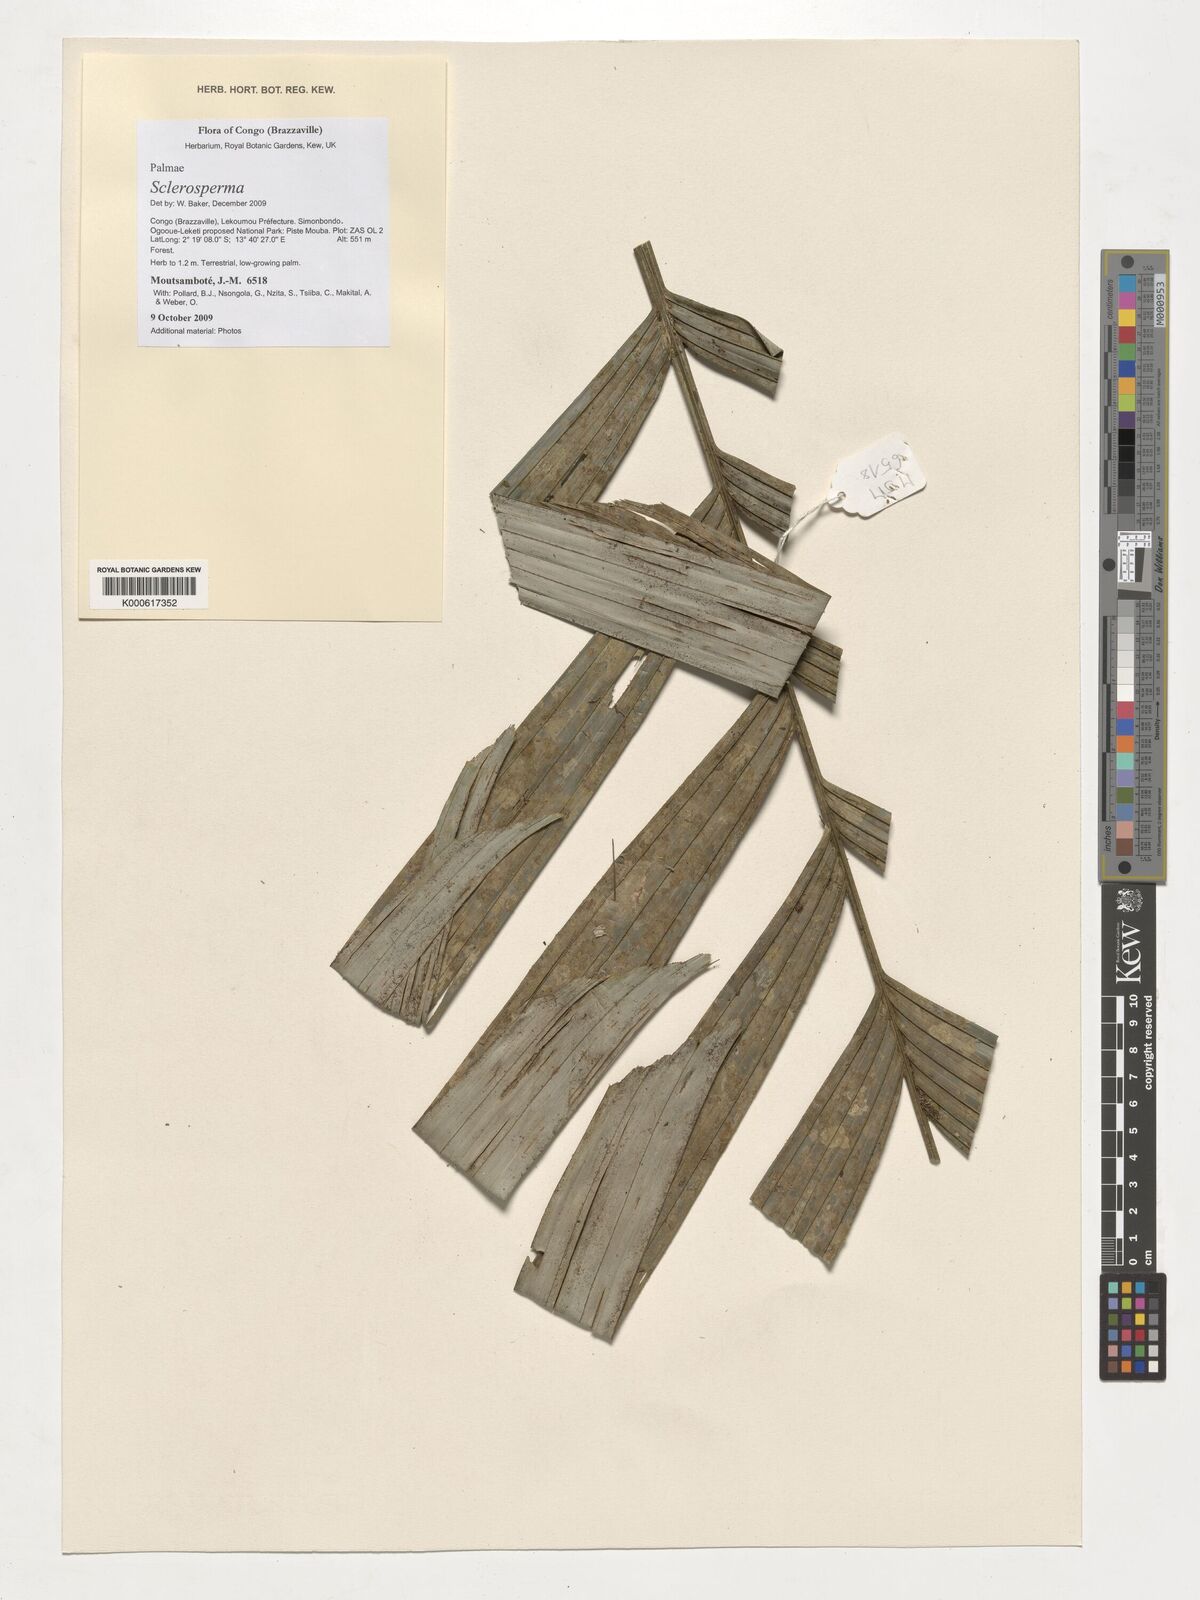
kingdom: Plantae
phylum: Tracheophyta
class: Liliopsida
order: Arecales
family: Arecaceae
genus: Sclerosperma
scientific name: Sclerosperma
